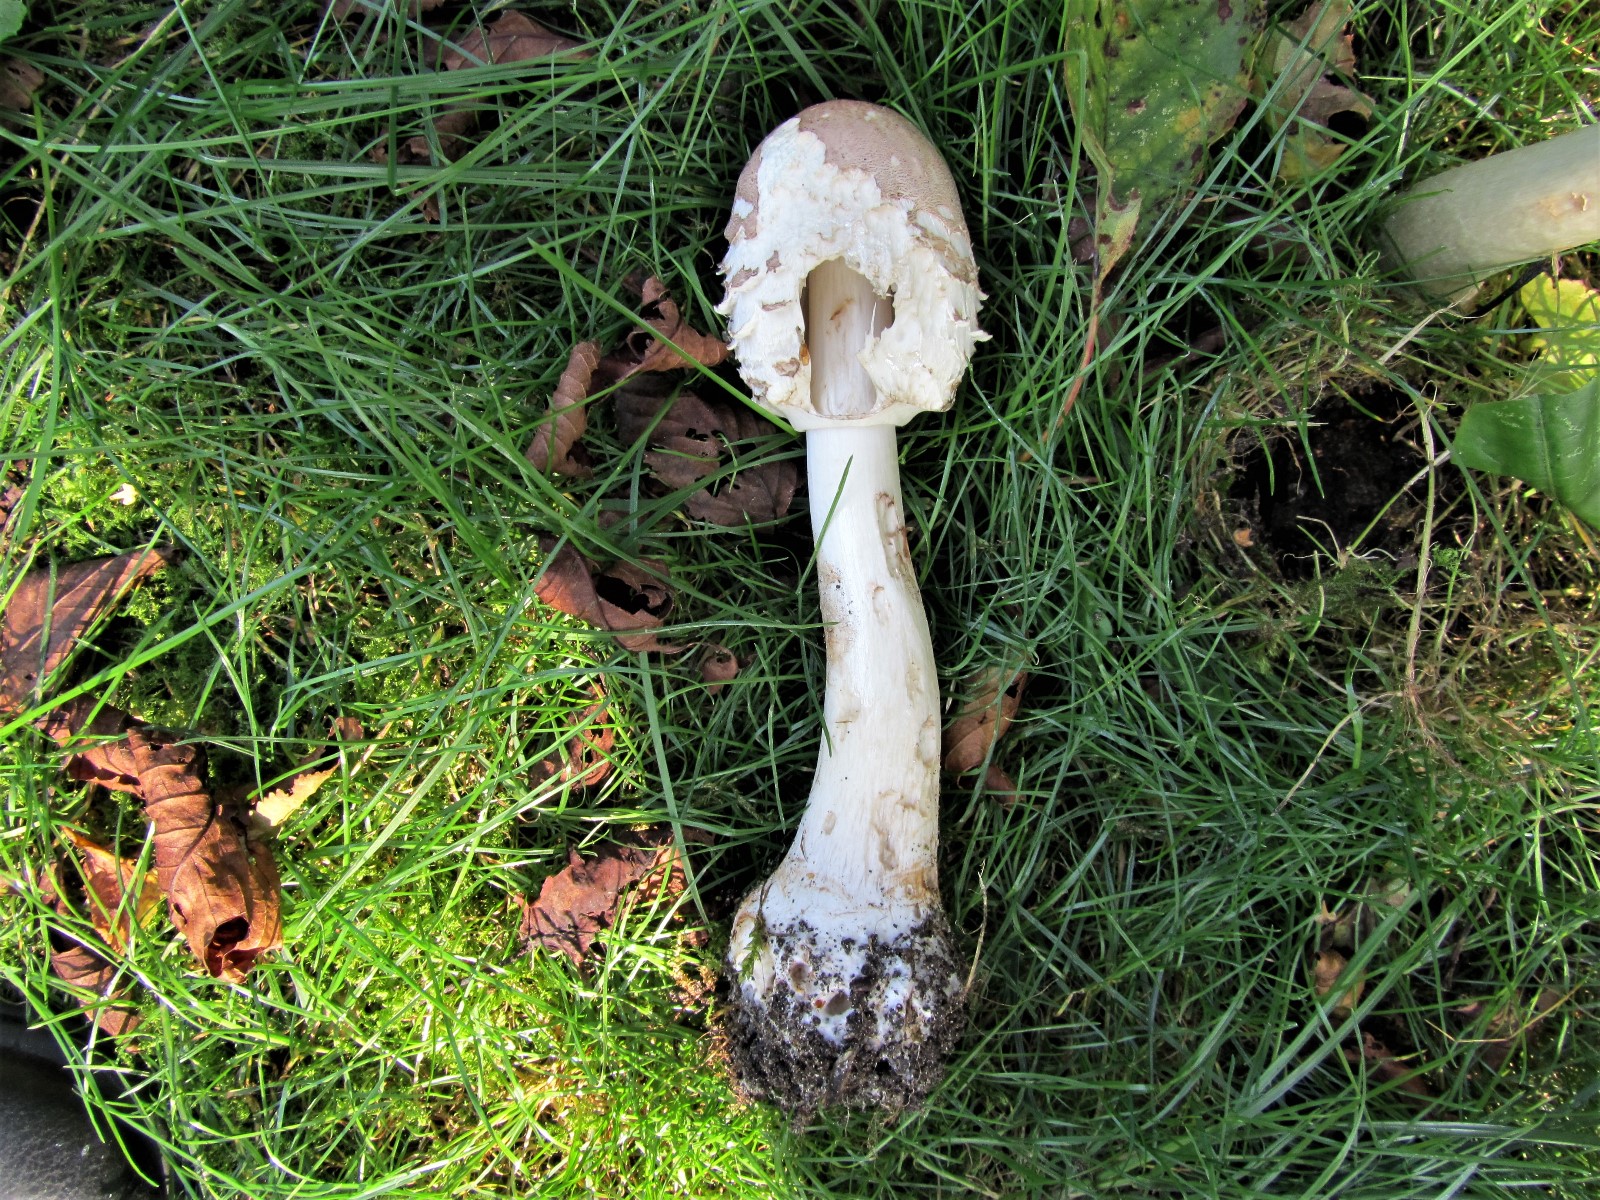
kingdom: Fungi
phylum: Basidiomycota
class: Agaricomycetes
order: Agaricales
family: Agaricaceae
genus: Chlorophyllum
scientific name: Chlorophyllum brunneum
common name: giftig rabarberhat
